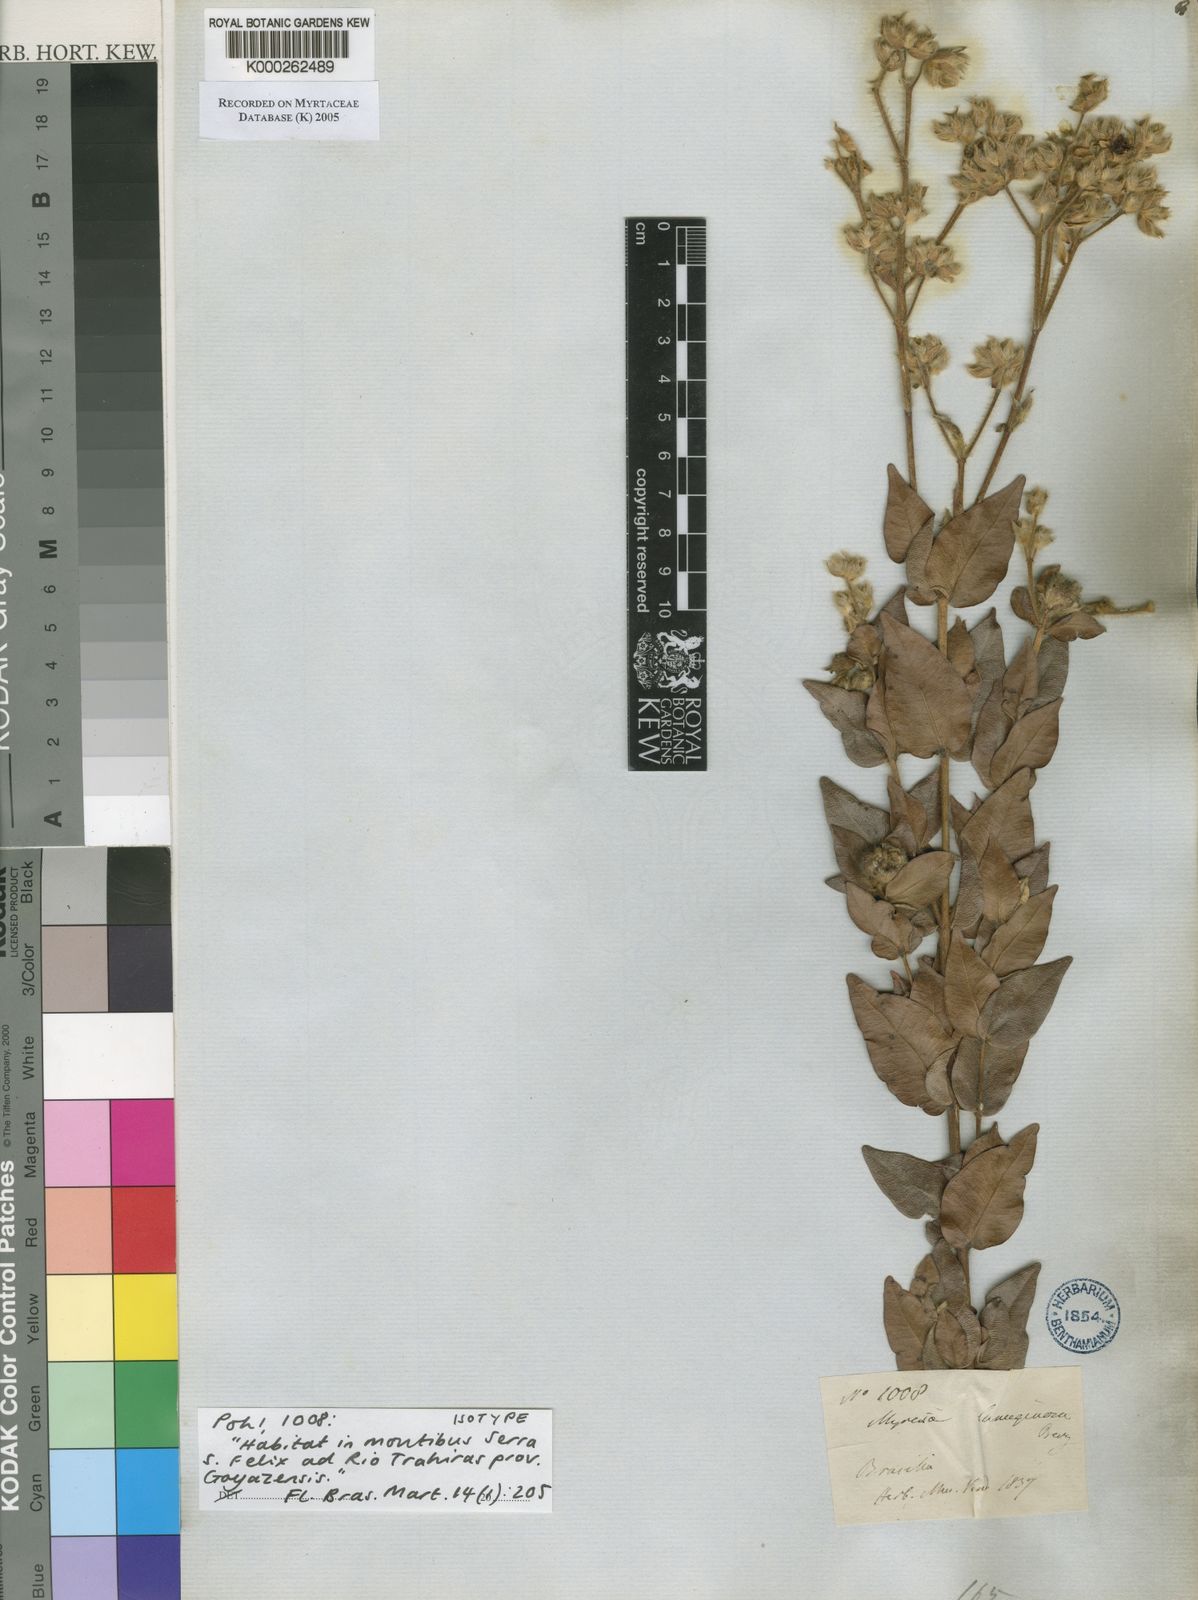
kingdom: Plantae
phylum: Tracheophyta
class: Magnoliopsida
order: Myrtales
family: Myrtaceae
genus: Myrcia
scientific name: Myrcia lanuginosa
